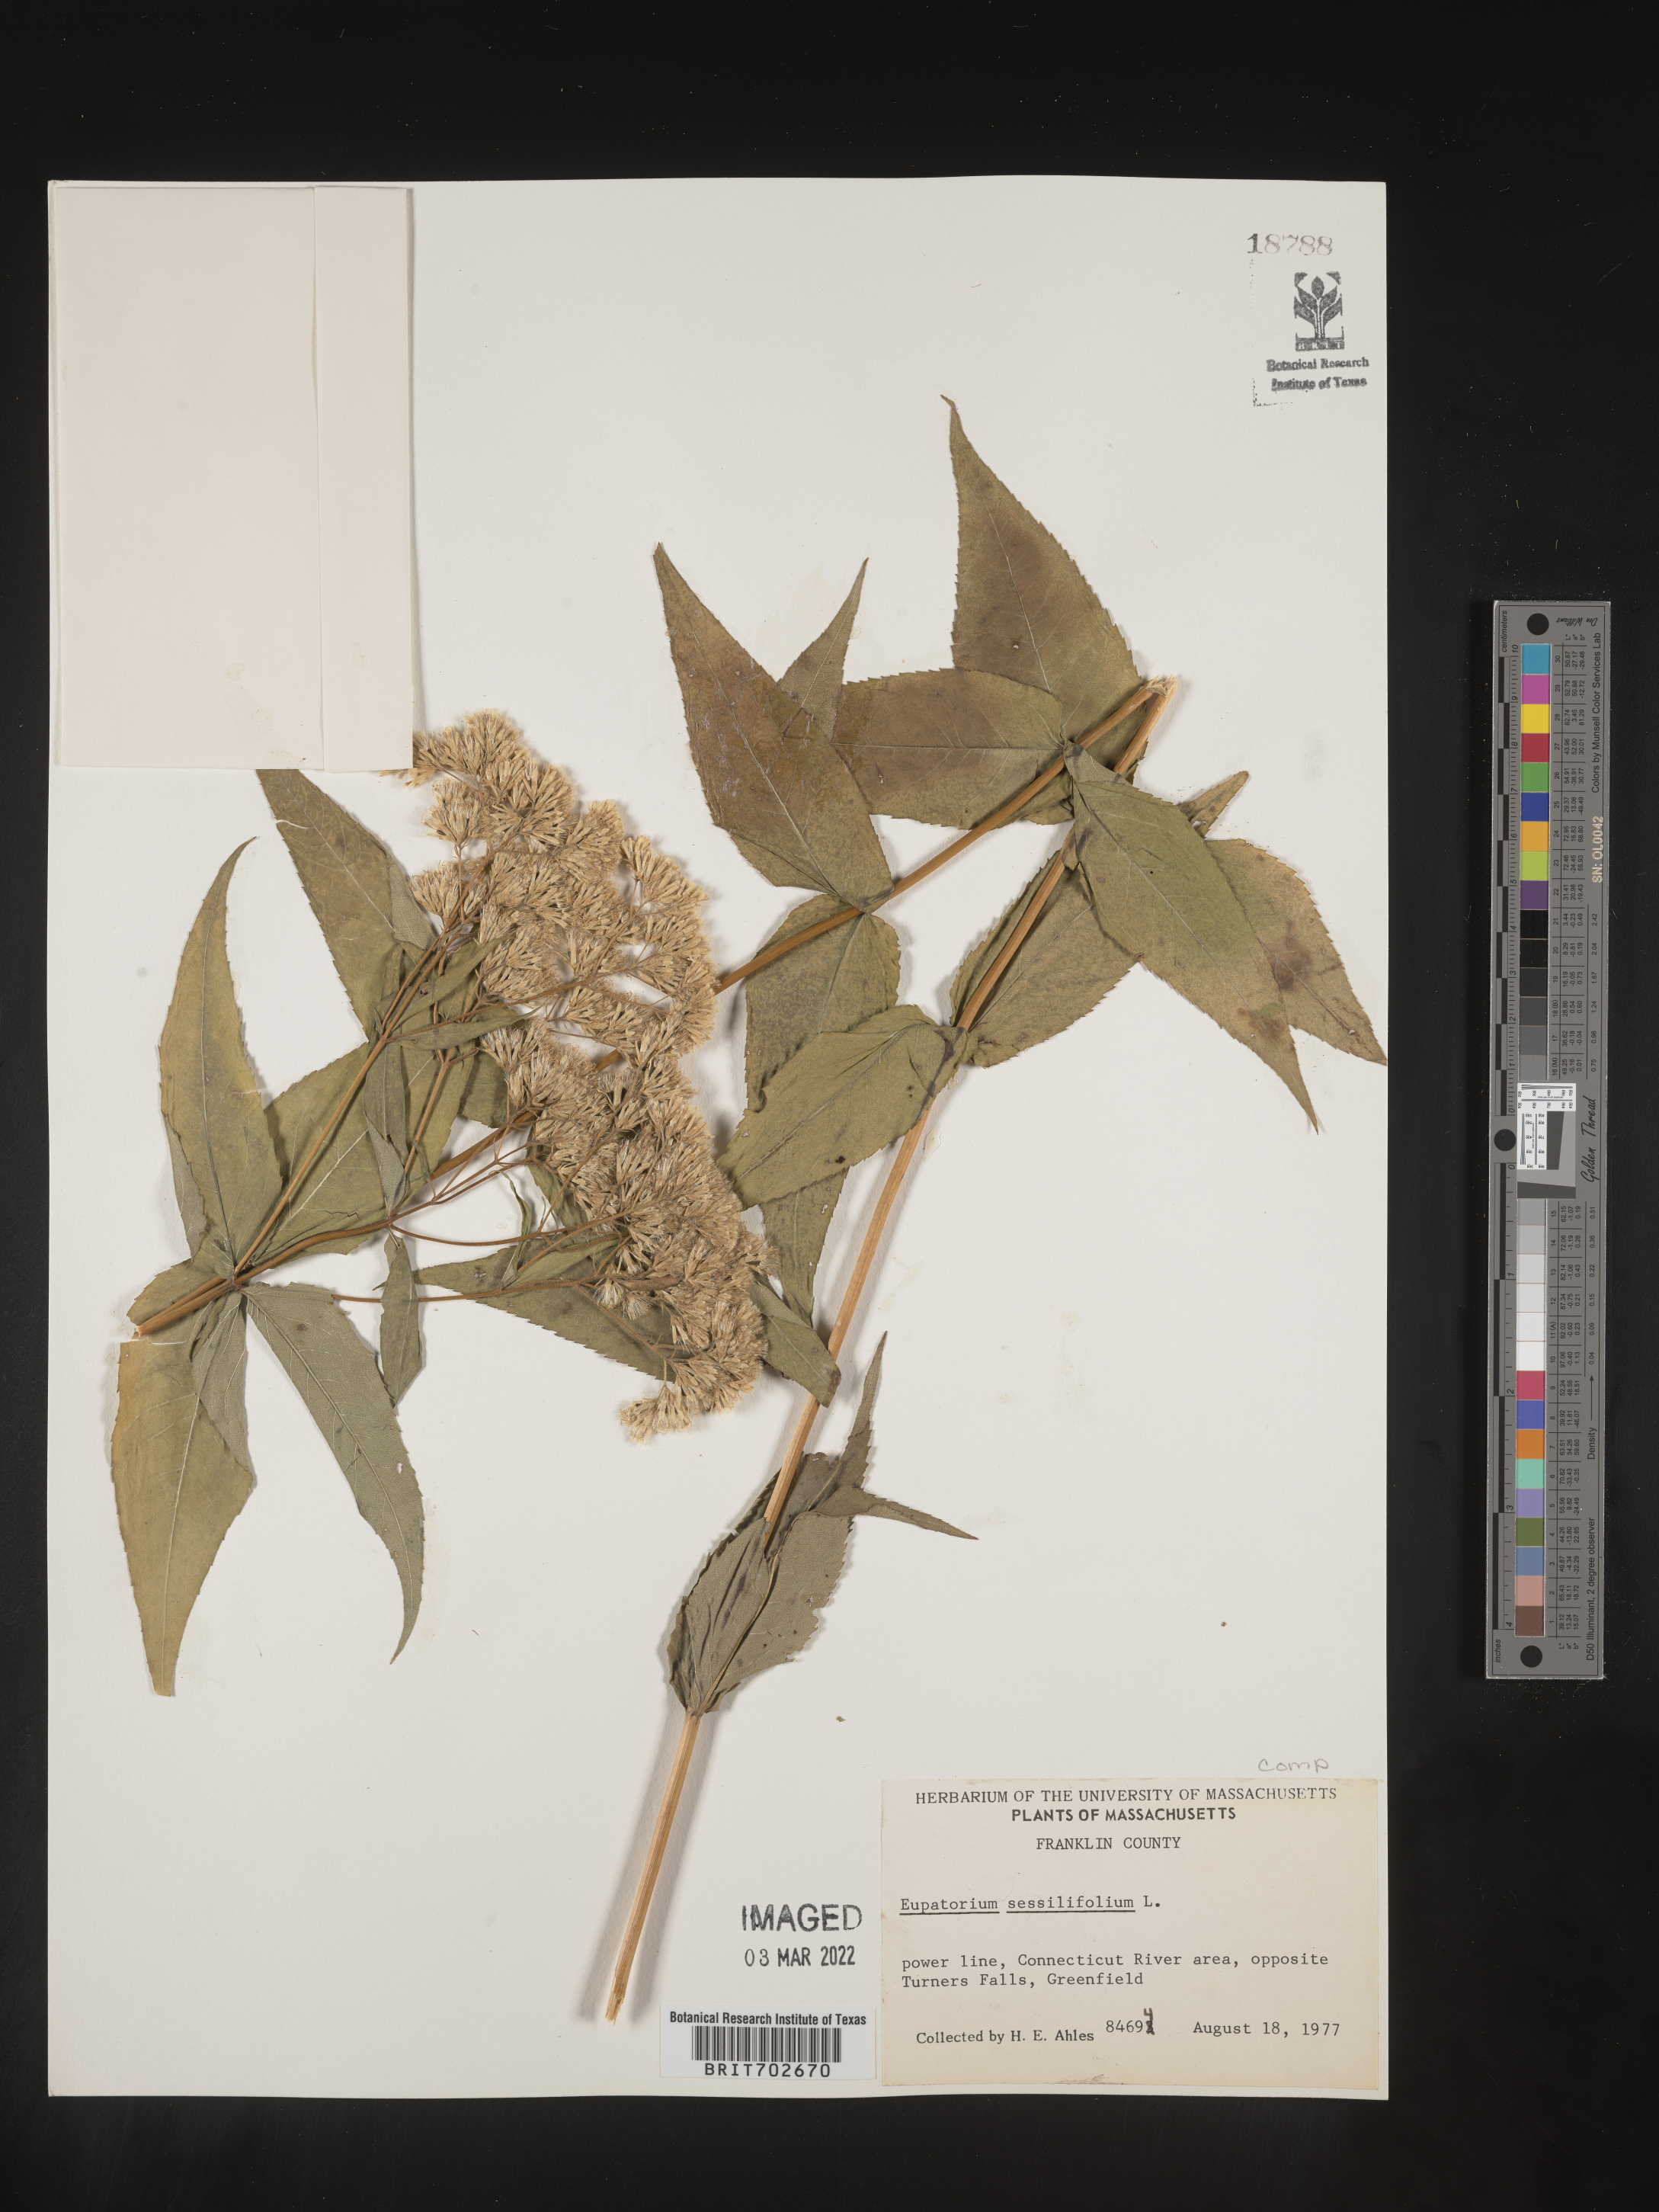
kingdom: Plantae
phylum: Tracheophyta
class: Magnoliopsida
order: Asterales
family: Asteraceae
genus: Eupatorium
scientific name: Eupatorium sessilifolium
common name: Upland boneset
